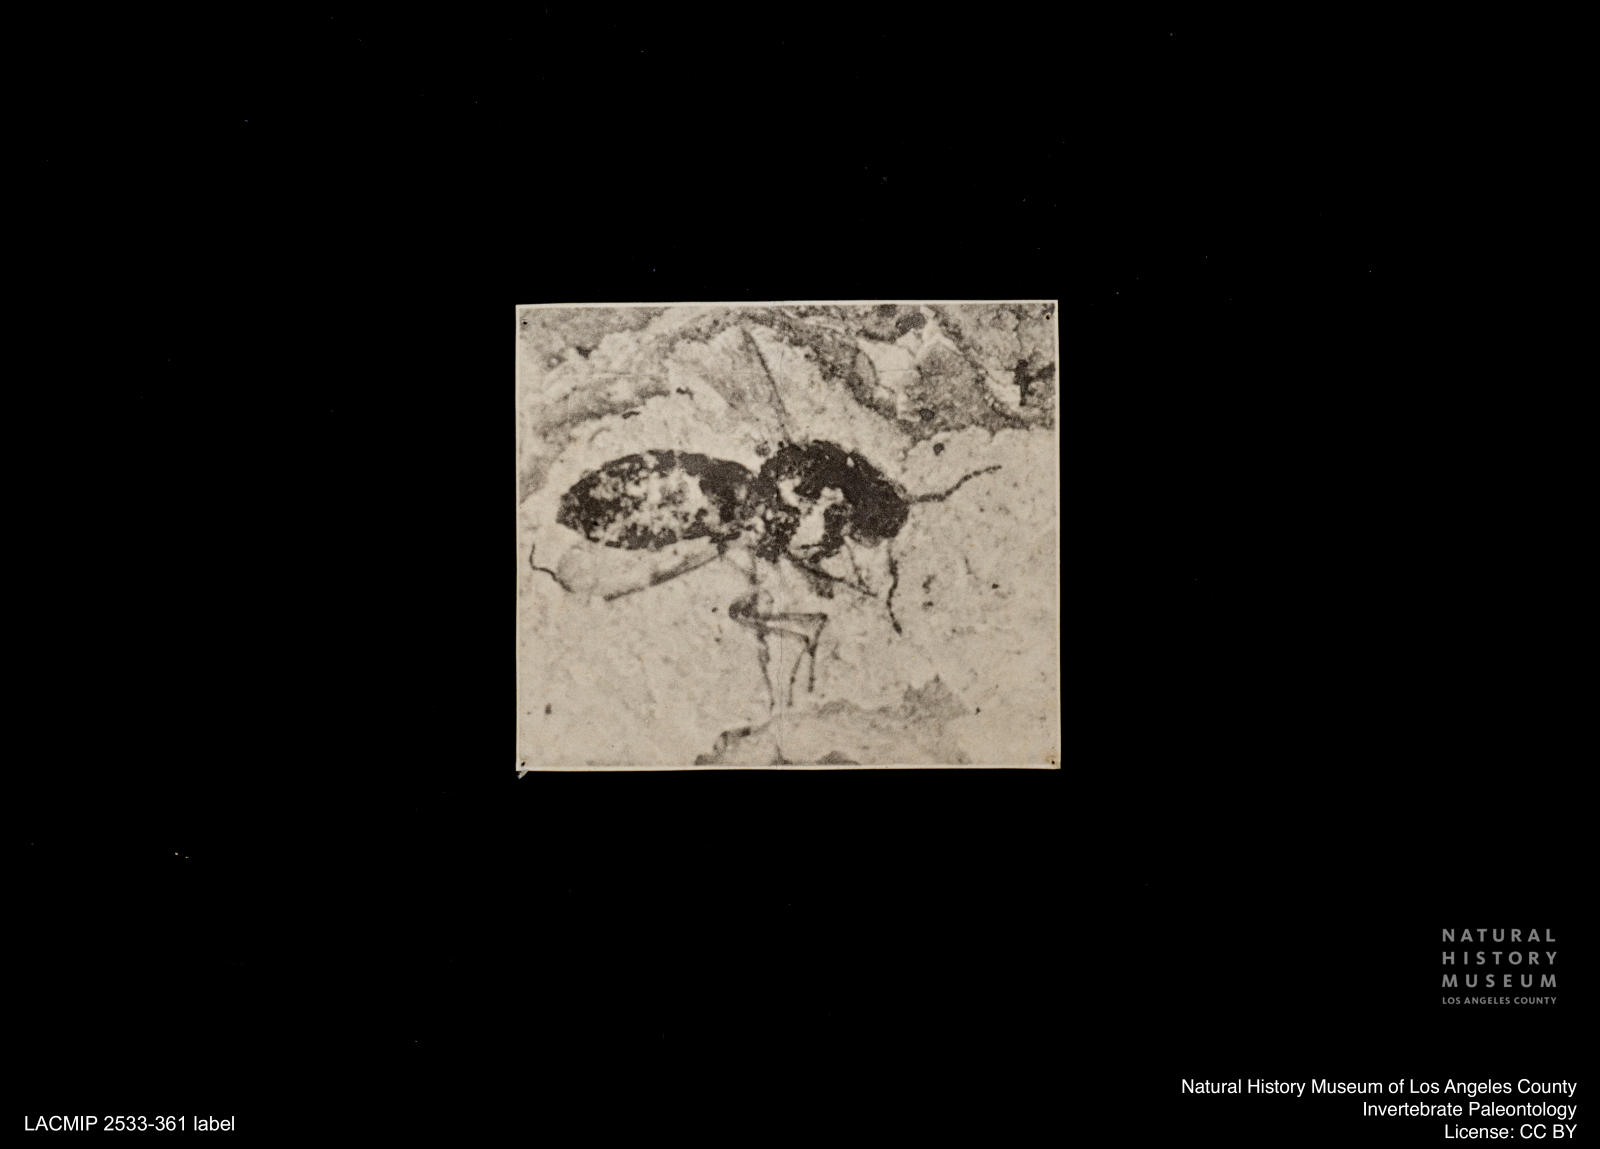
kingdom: Animalia
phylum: Arthropoda
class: Insecta
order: Diptera
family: Ceratopogonidae
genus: Culicoides
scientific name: Culicoides elongatulus
